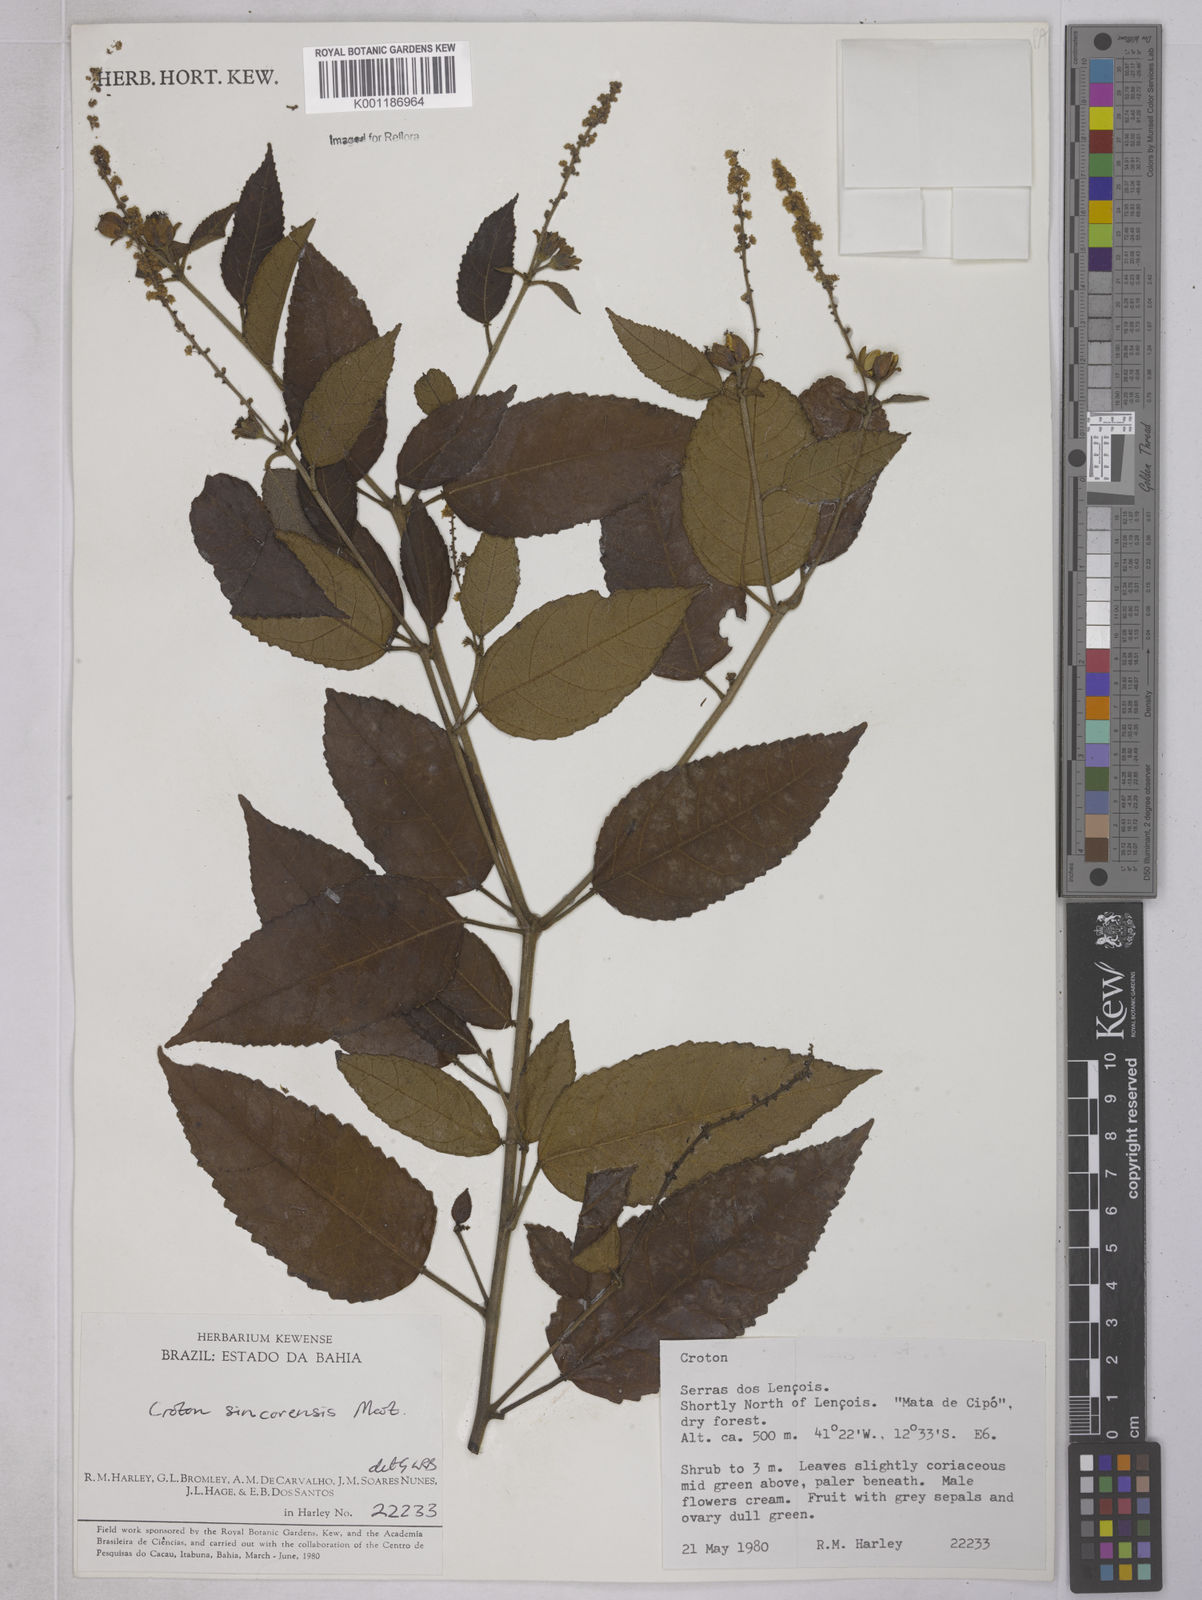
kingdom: Plantae
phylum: Tracheophyta
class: Magnoliopsida
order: Malpighiales
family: Euphorbiaceae
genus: Croton
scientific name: Croton sincorensis
